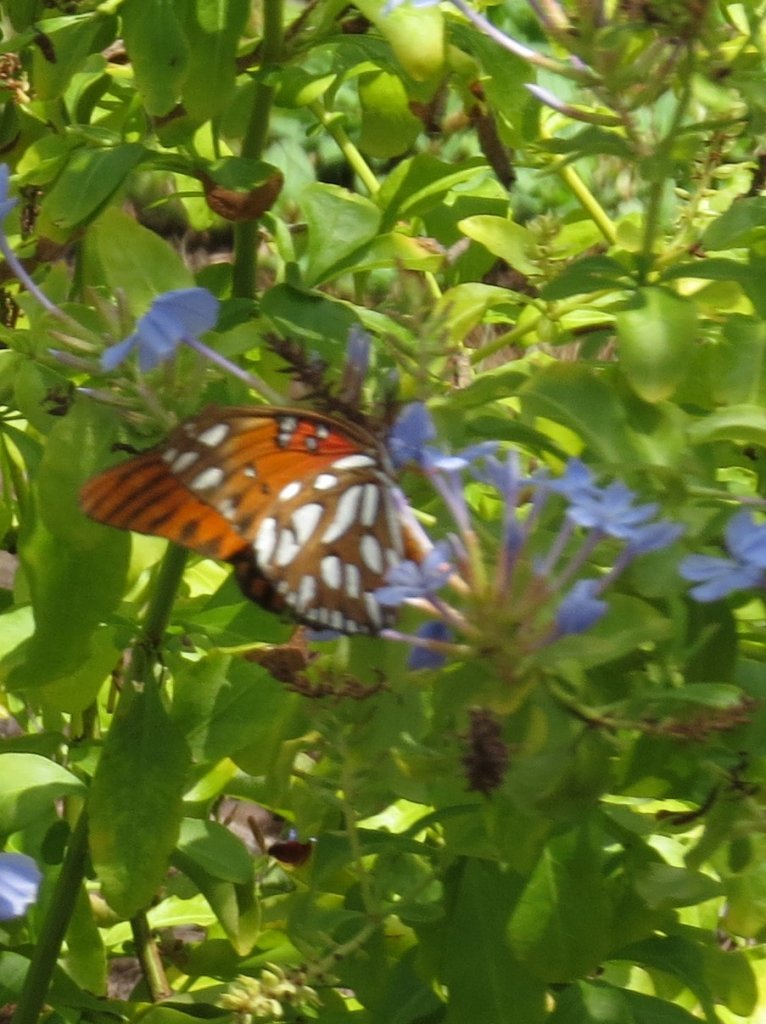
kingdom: Animalia
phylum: Arthropoda
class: Insecta
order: Lepidoptera
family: Nymphalidae
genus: Dione
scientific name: Dione vanillae
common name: Gulf Fritillary
